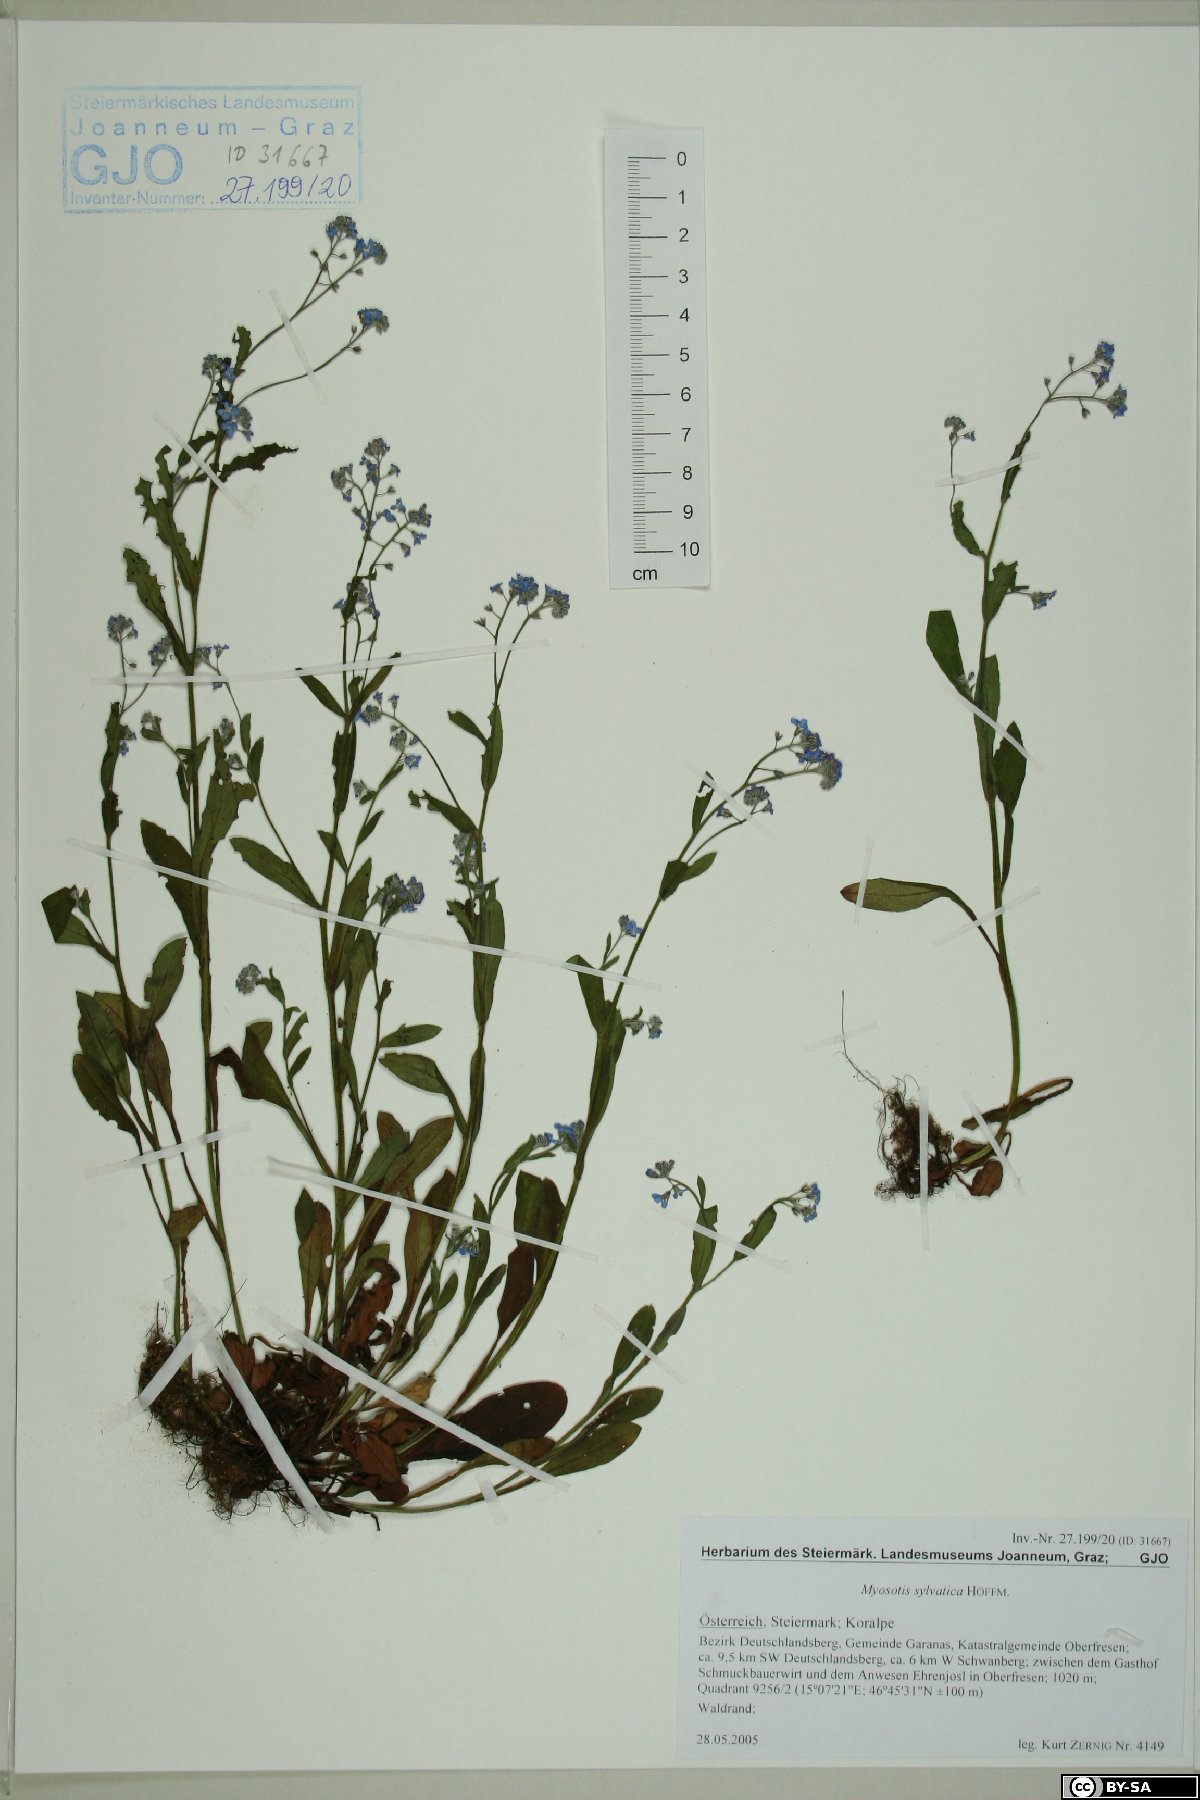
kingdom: Plantae
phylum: Tracheophyta
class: Magnoliopsida
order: Boraginales
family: Boraginaceae
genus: Myosotis
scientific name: Myosotis sylvatica
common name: Wood forget-me-not
